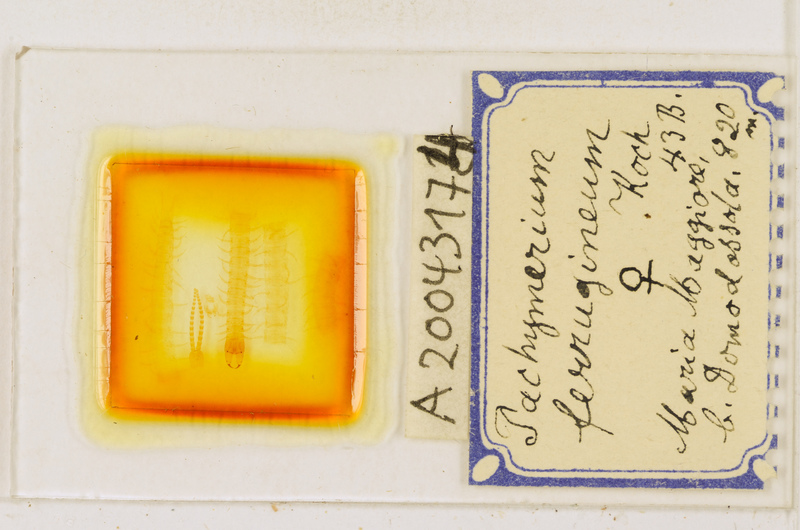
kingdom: Animalia
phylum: Arthropoda
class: Chilopoda
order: Geophilomorpha
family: Geophilidae
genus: Pachymerium
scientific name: Pachymerium ferrugineum
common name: Centipede
